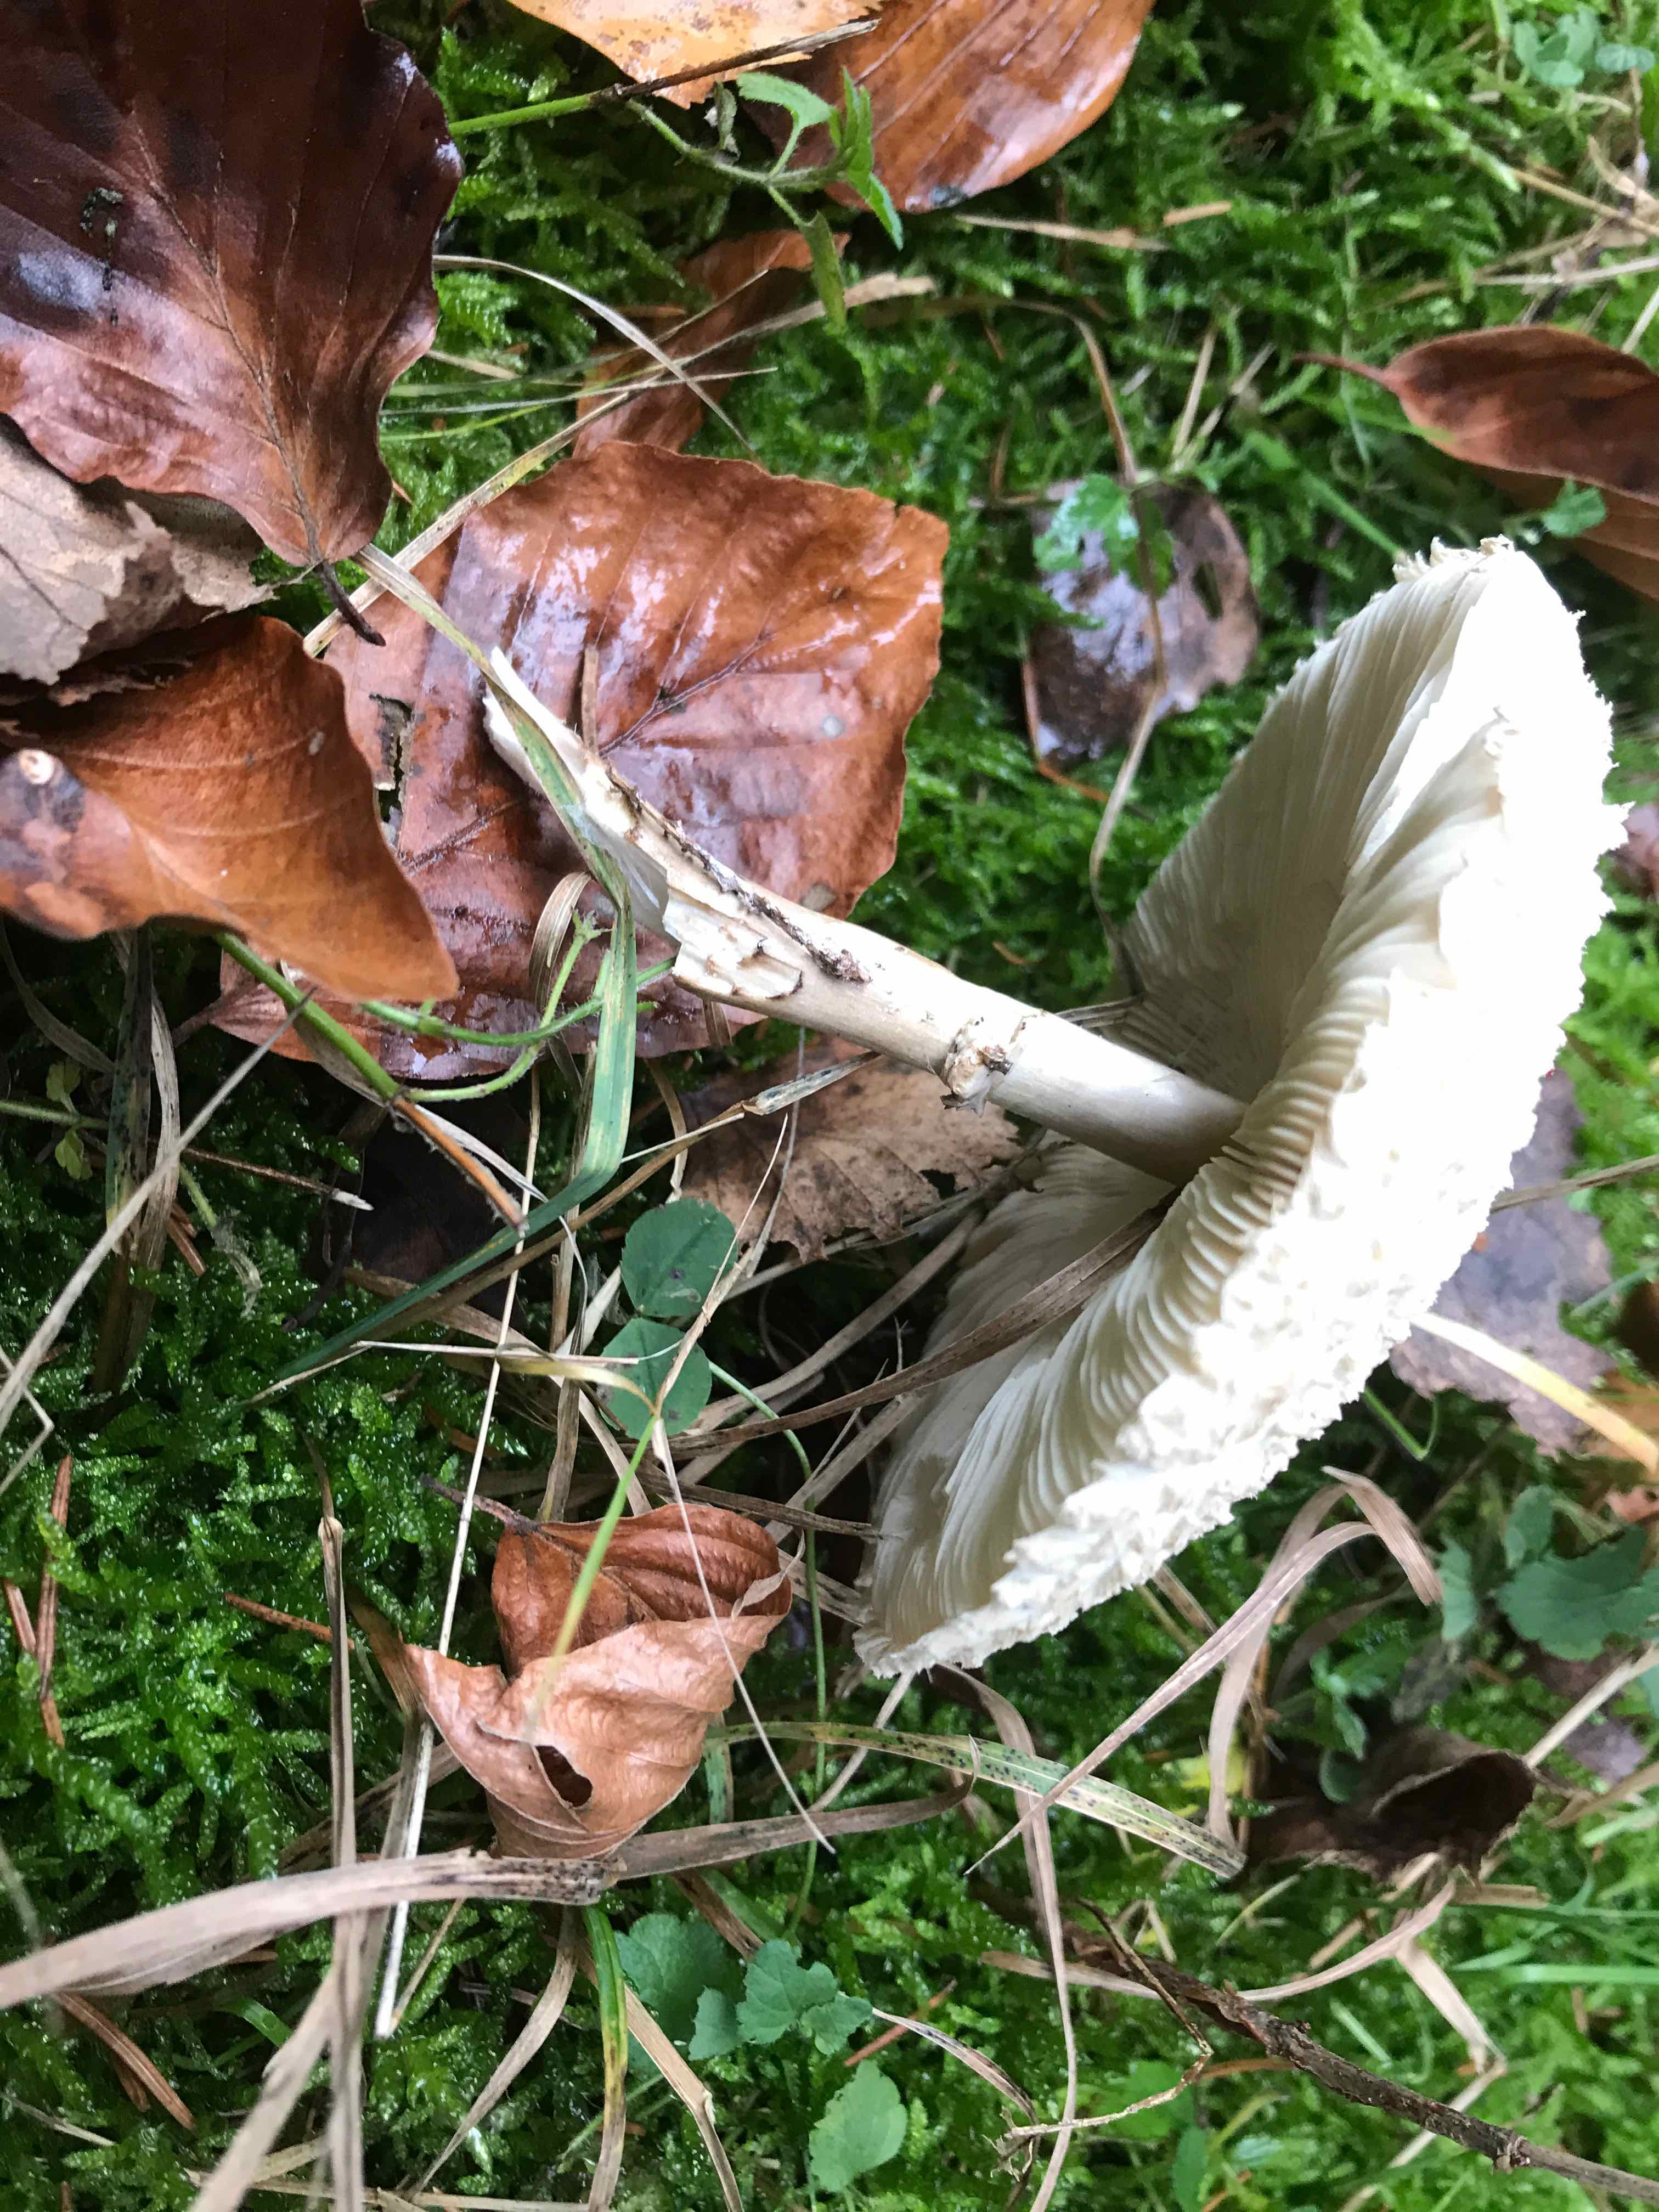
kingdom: Fungi
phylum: Basidiomycota
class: Agaricomycetes
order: Agaricales
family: Agaricaceae
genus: Leucoagaricus
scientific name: Leucoagaricus nympharum
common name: gran-silkehat
